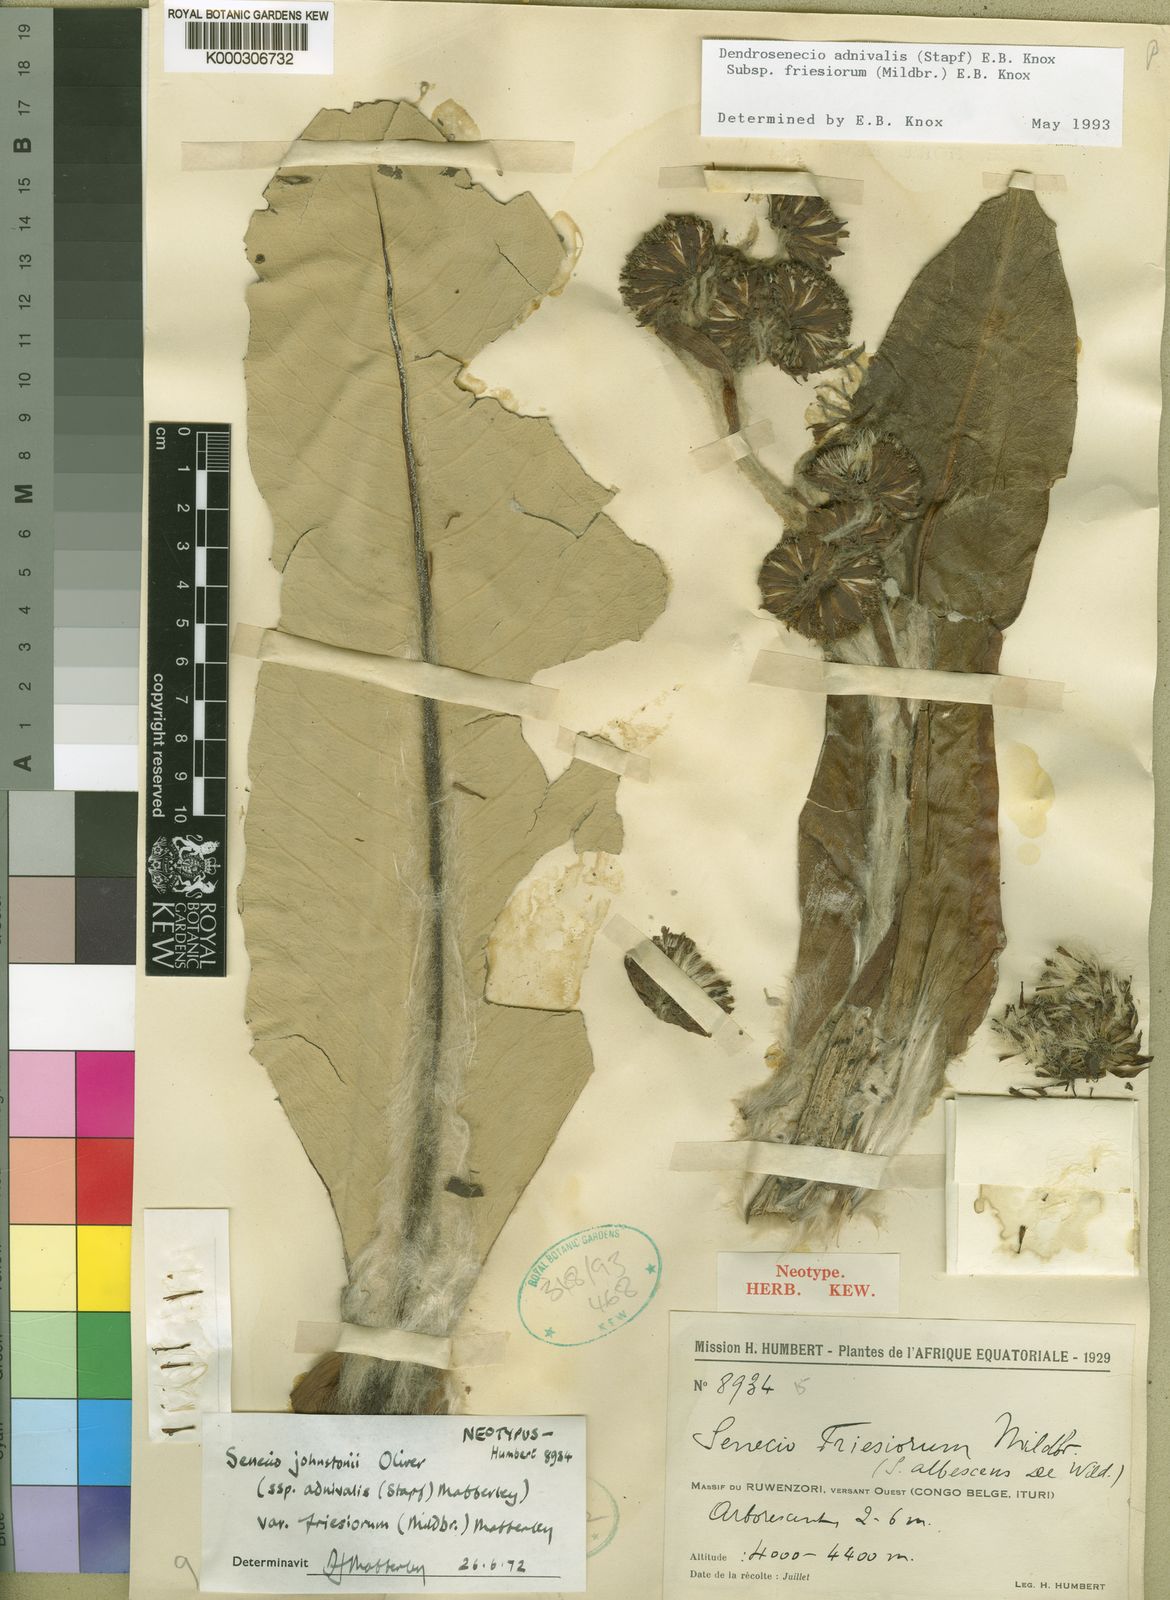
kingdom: Plantae
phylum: Tracheophyta
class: Magnoliopsida
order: Asterales
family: Asteraceae
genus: Dendrosenecio
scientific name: Dendrosenecio adnivalis
